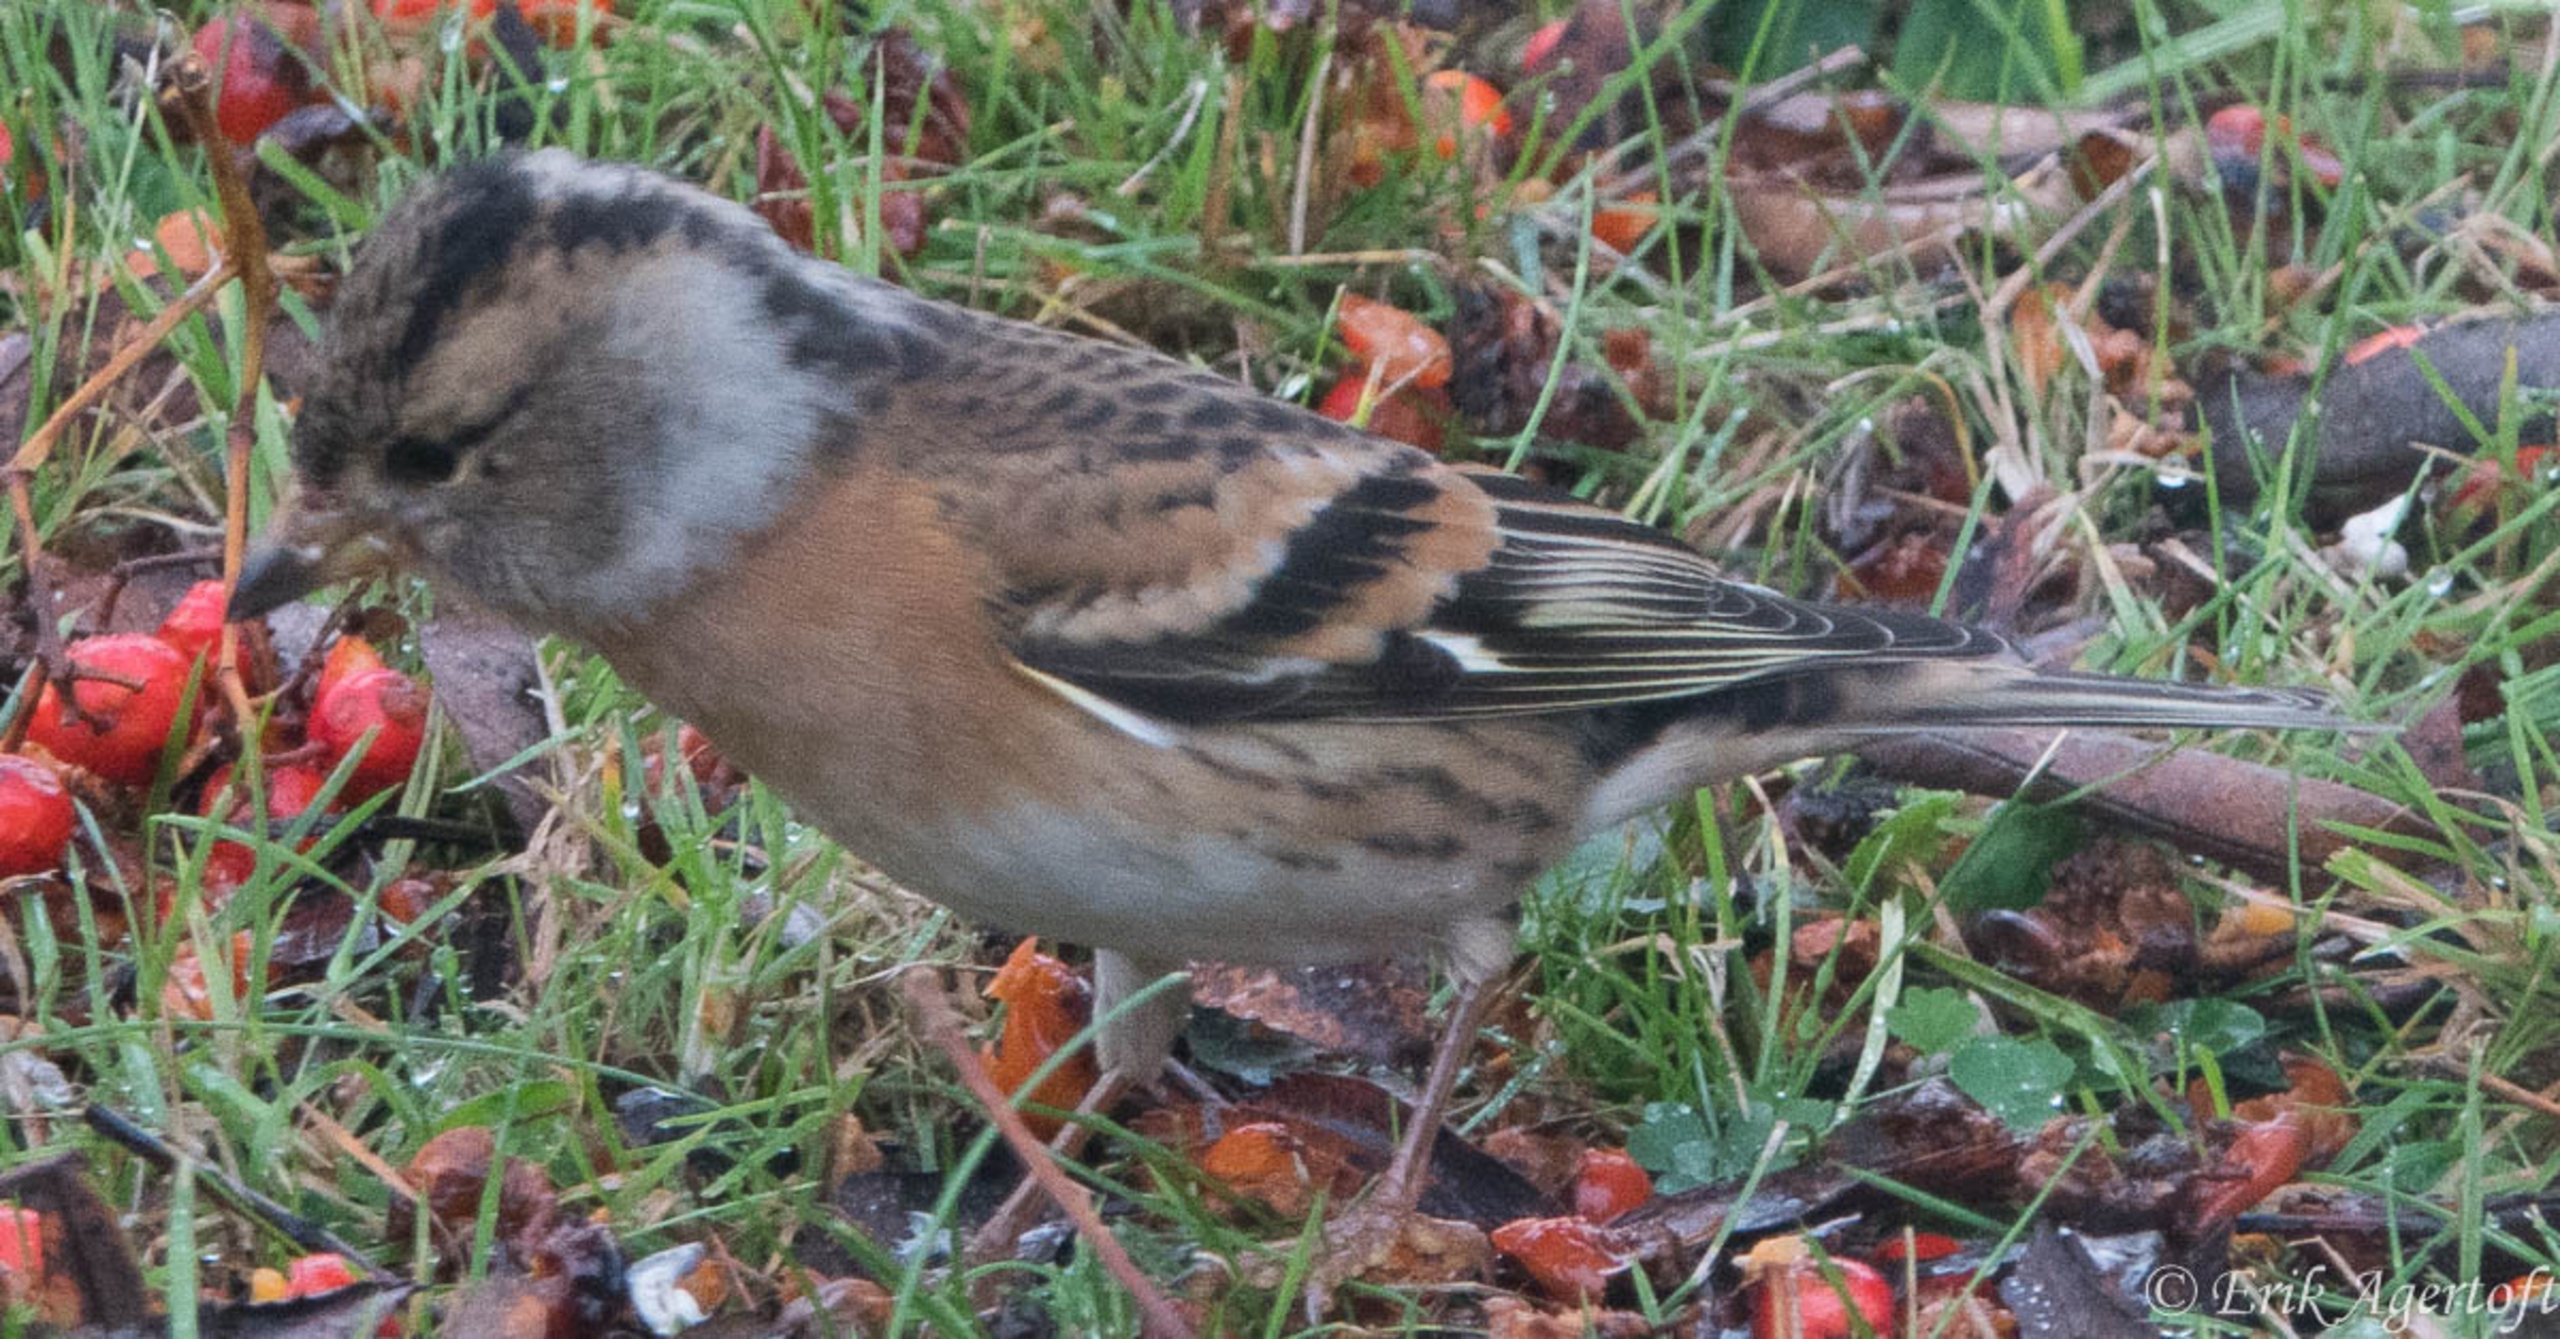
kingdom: Animalia
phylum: Chordata
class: Aves
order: Passeriformes
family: Fringillidae
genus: Fringilla
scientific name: Fringilla montifringilla
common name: Kvækerfinke
